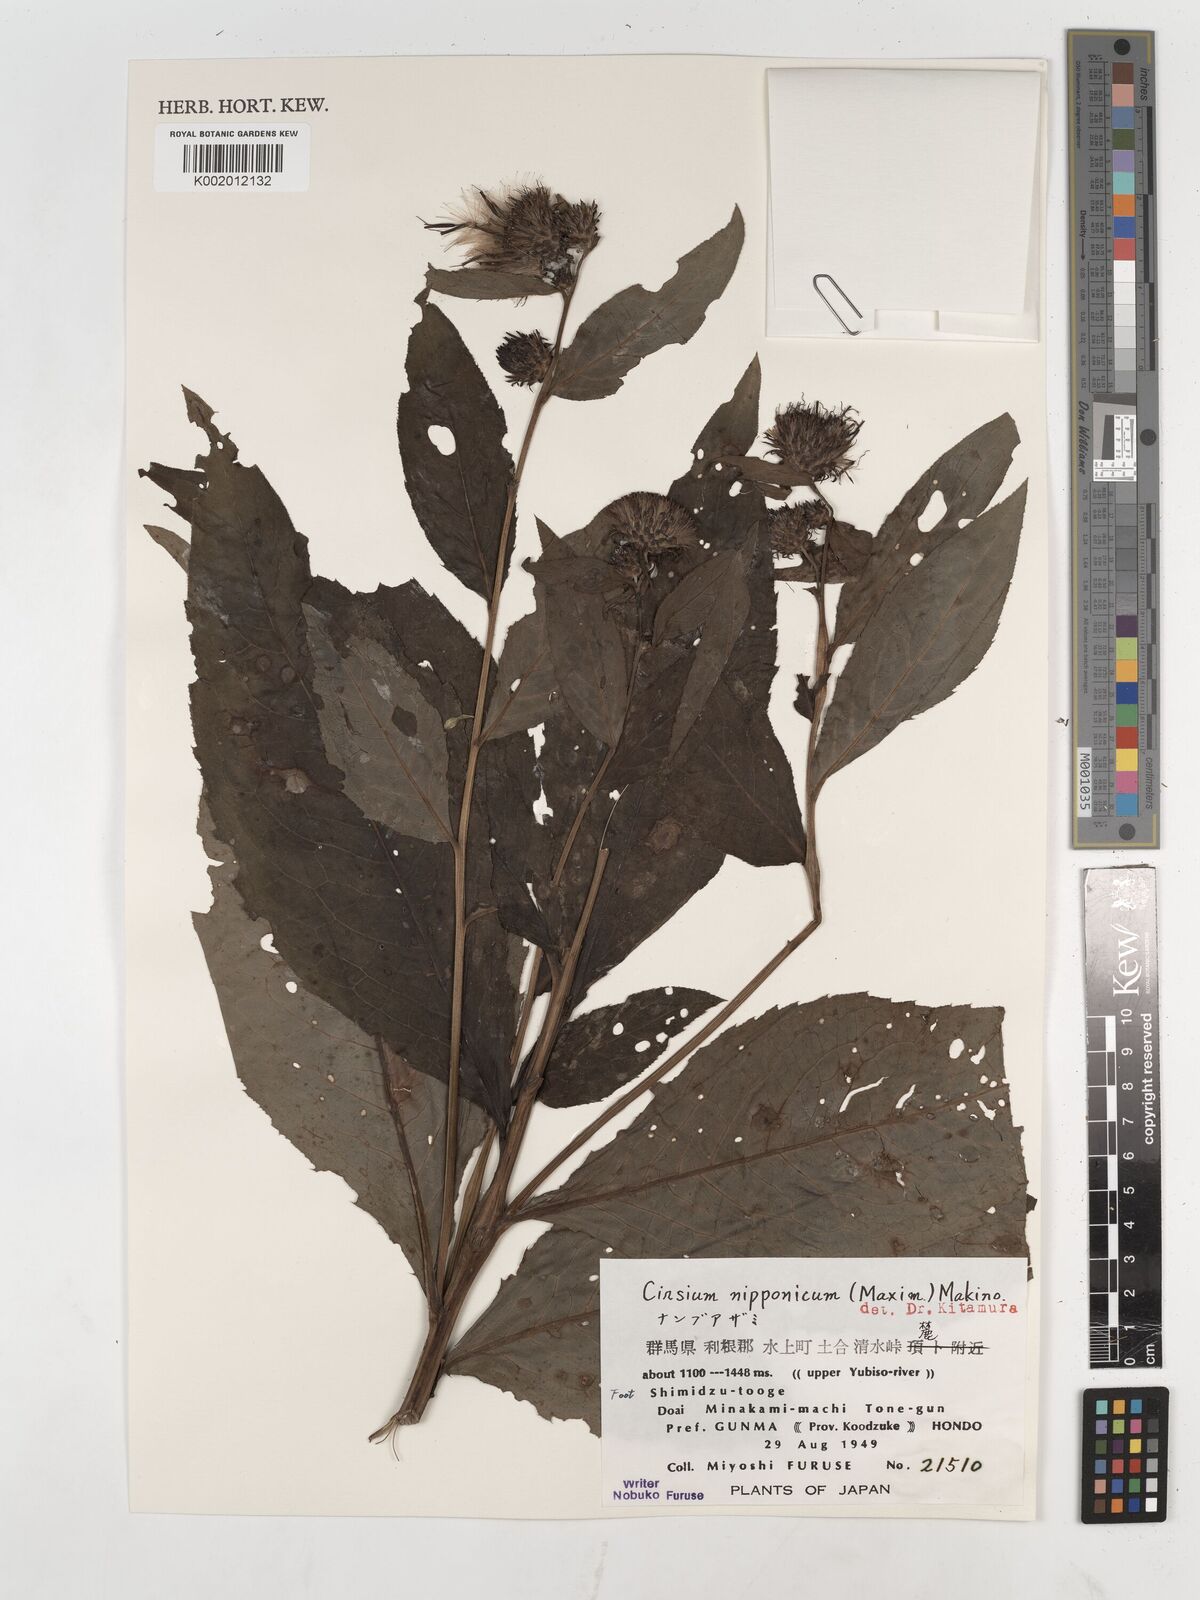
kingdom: Plantae
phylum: Tracheophyta
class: Magnoliopsida
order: Asterales
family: Asteraceae
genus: Cirsium
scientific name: Cirsium nipponicum
